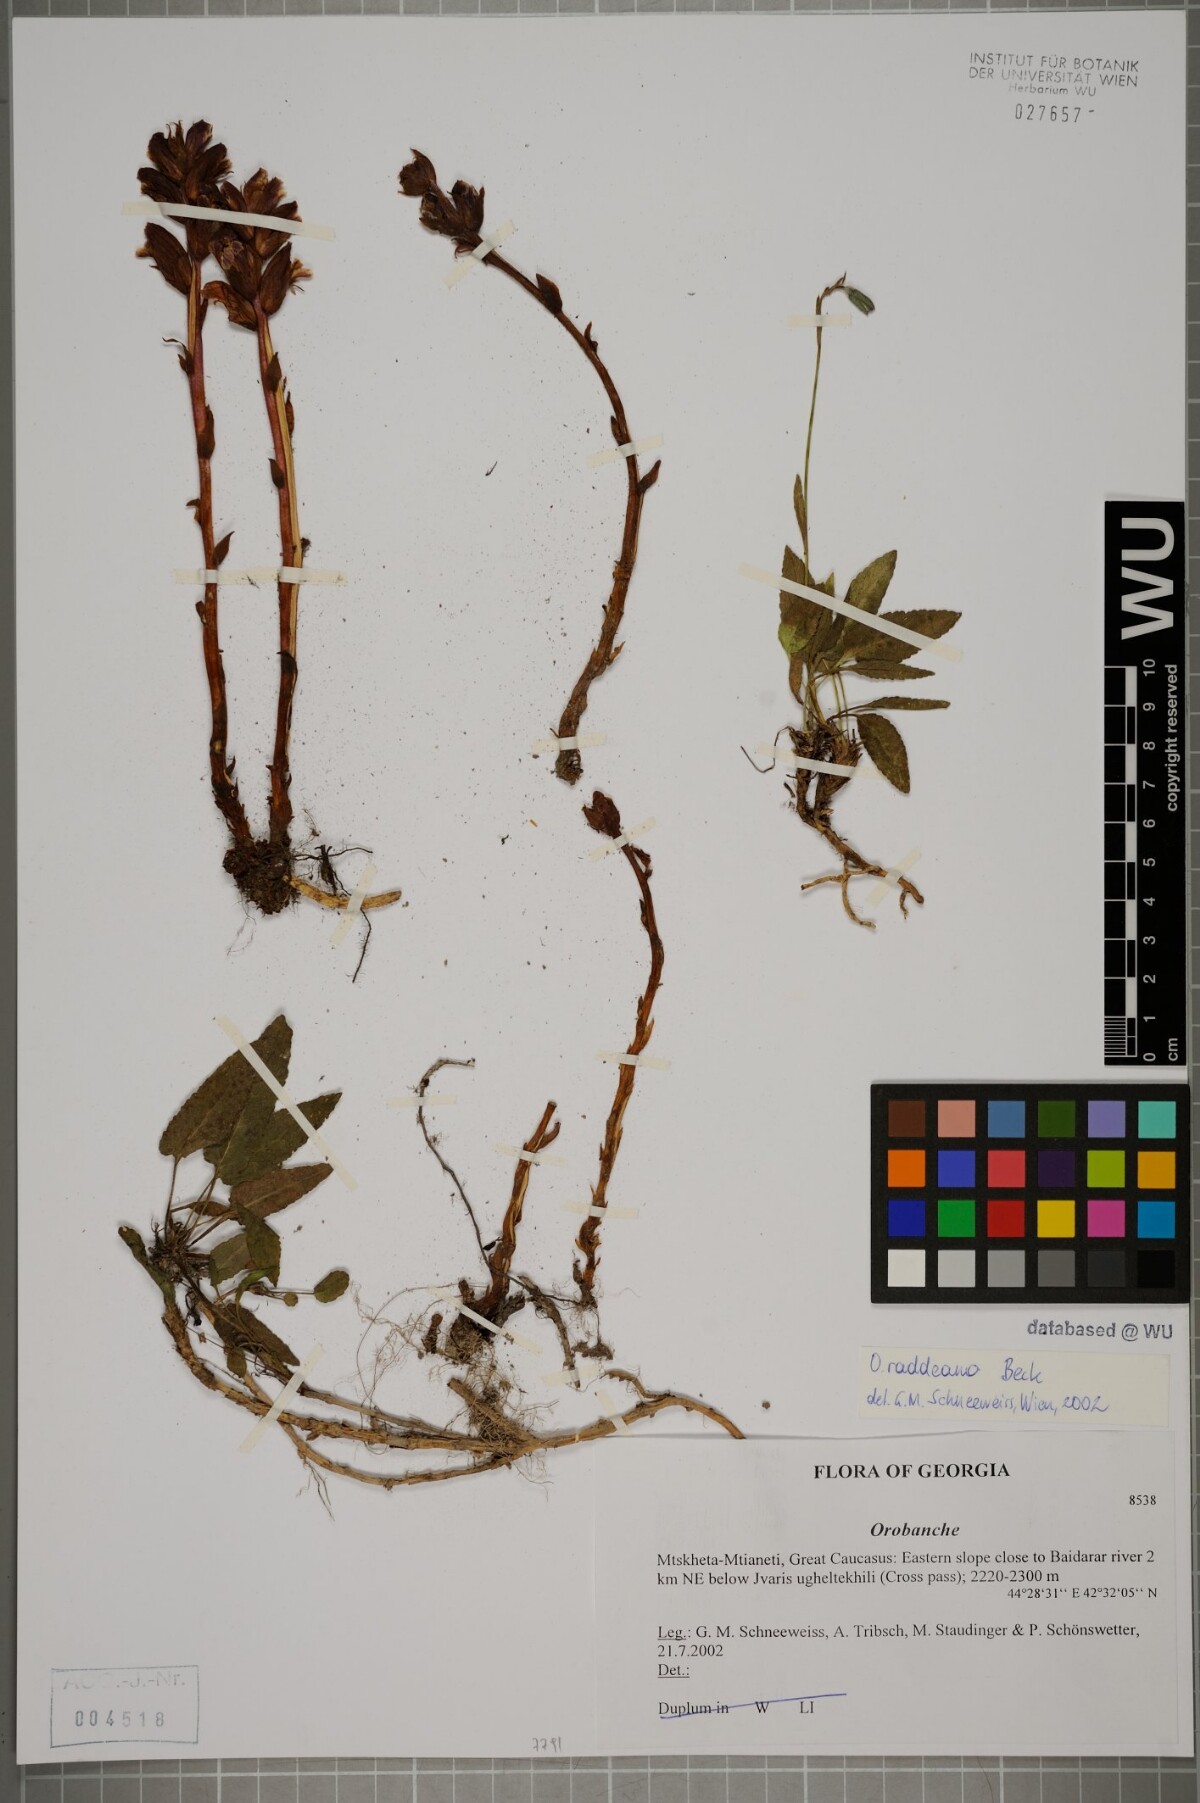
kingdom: Plantae
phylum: Tracheophyta
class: Magnoliopsida
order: Lamiales
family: Orobanchaceae
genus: Orobanche
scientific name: Orobanche alba
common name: Thyme broomrape
